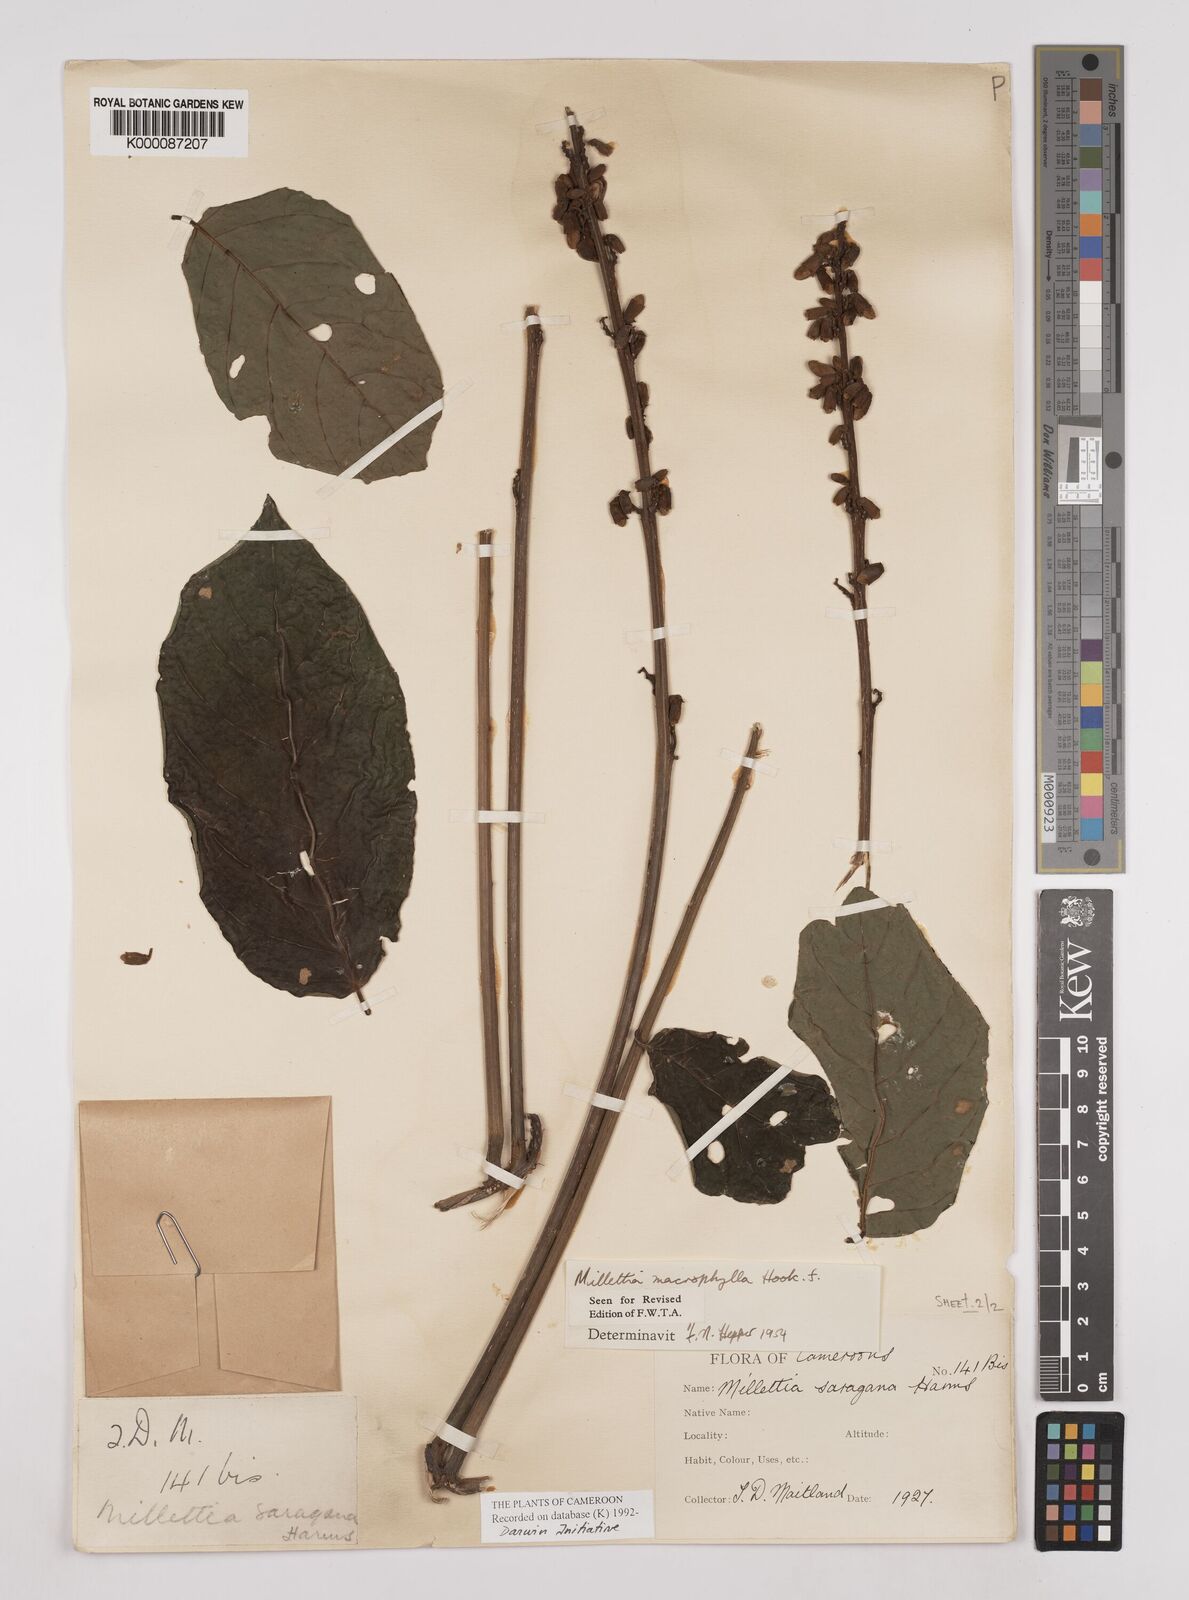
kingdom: Plantae
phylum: Tracheophyta
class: Magnoliopsida
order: Fabales
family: Fabaceae
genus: Millettia
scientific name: Millettia macrophylla
